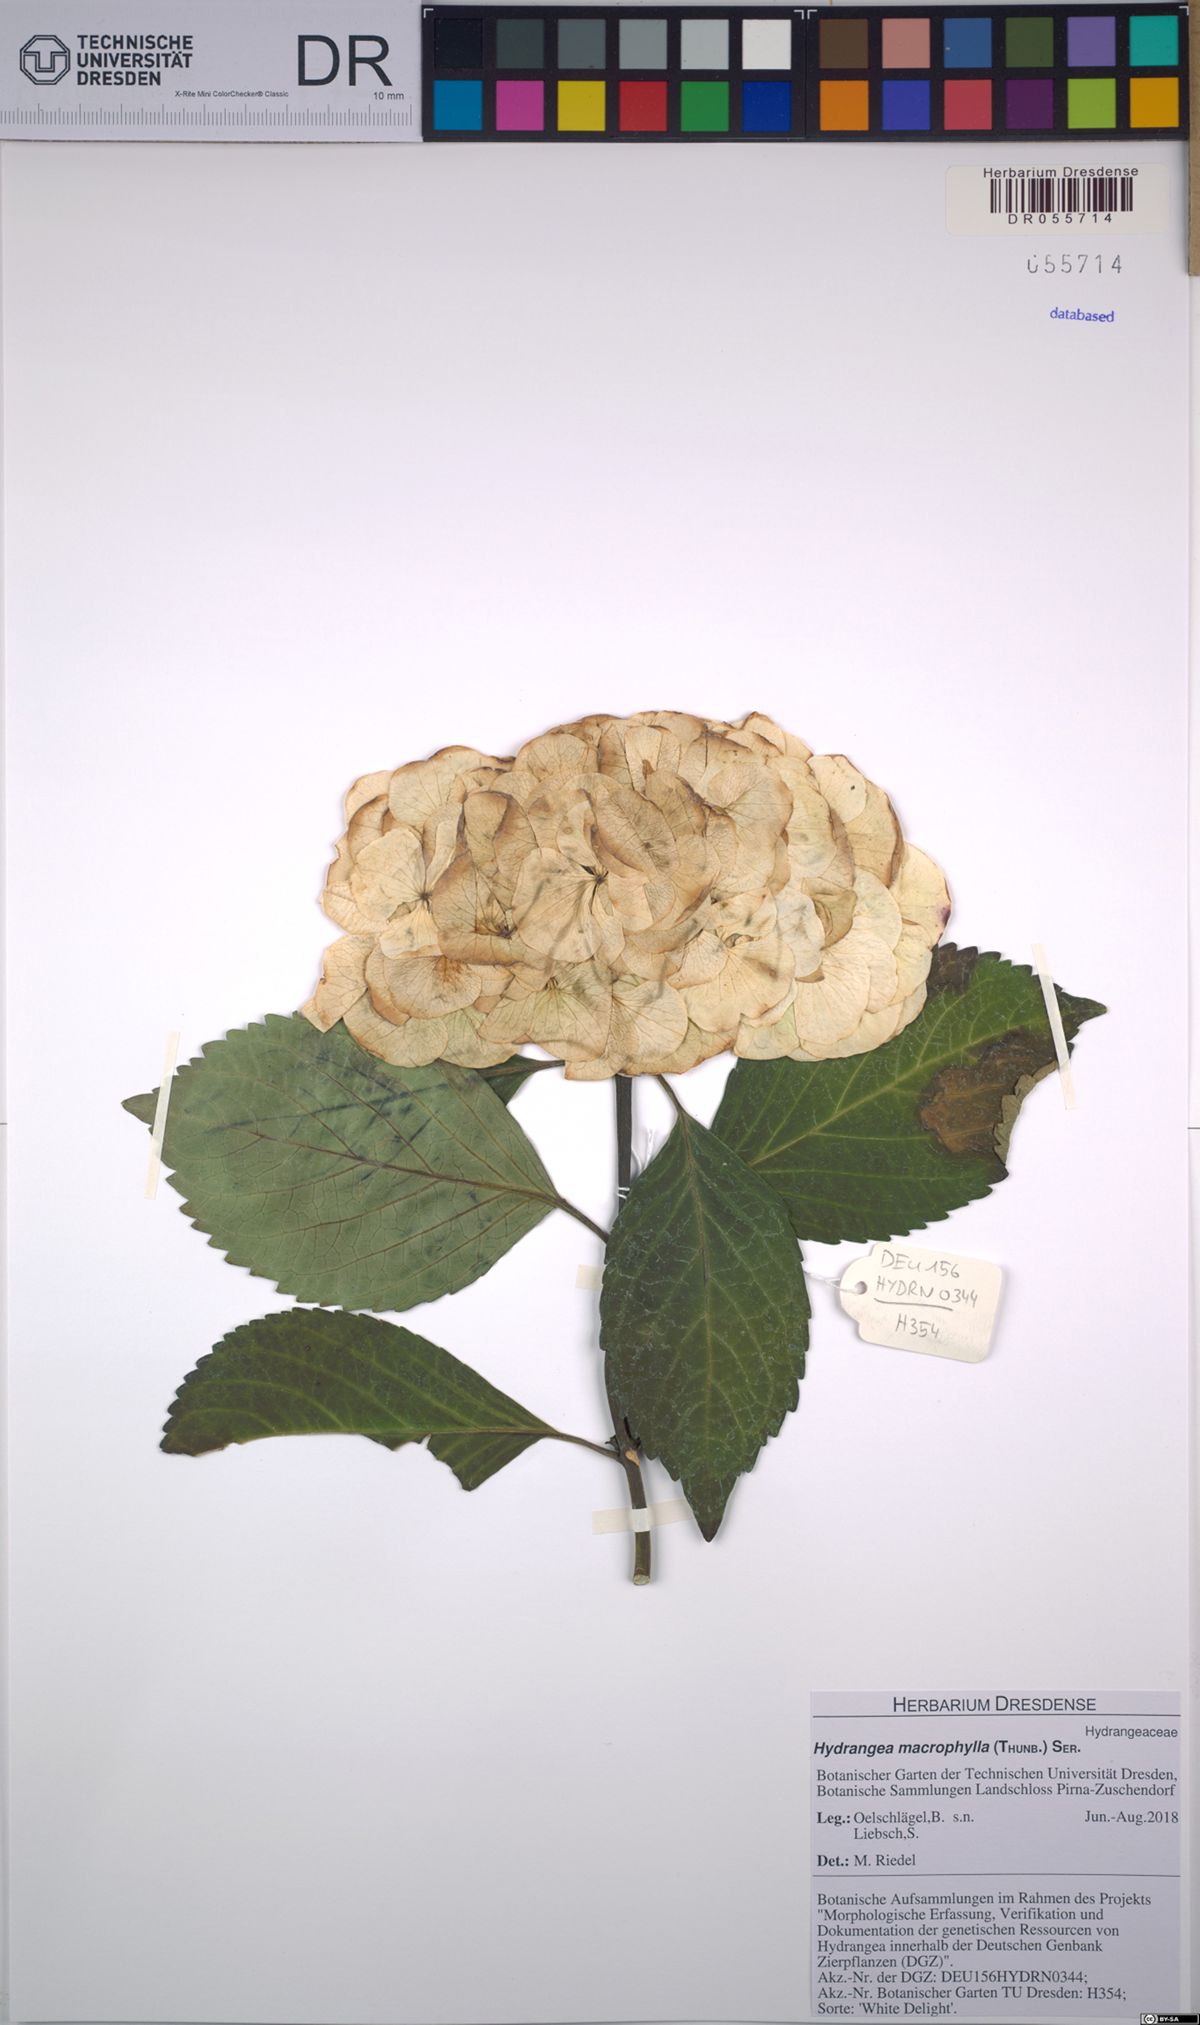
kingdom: Plantae
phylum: Tracheophyta
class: Magnoliopsida
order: Cornales
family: Hydrangeaceae
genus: Hydrangea
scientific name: Hydrangea macrophylla
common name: Hydrangea
